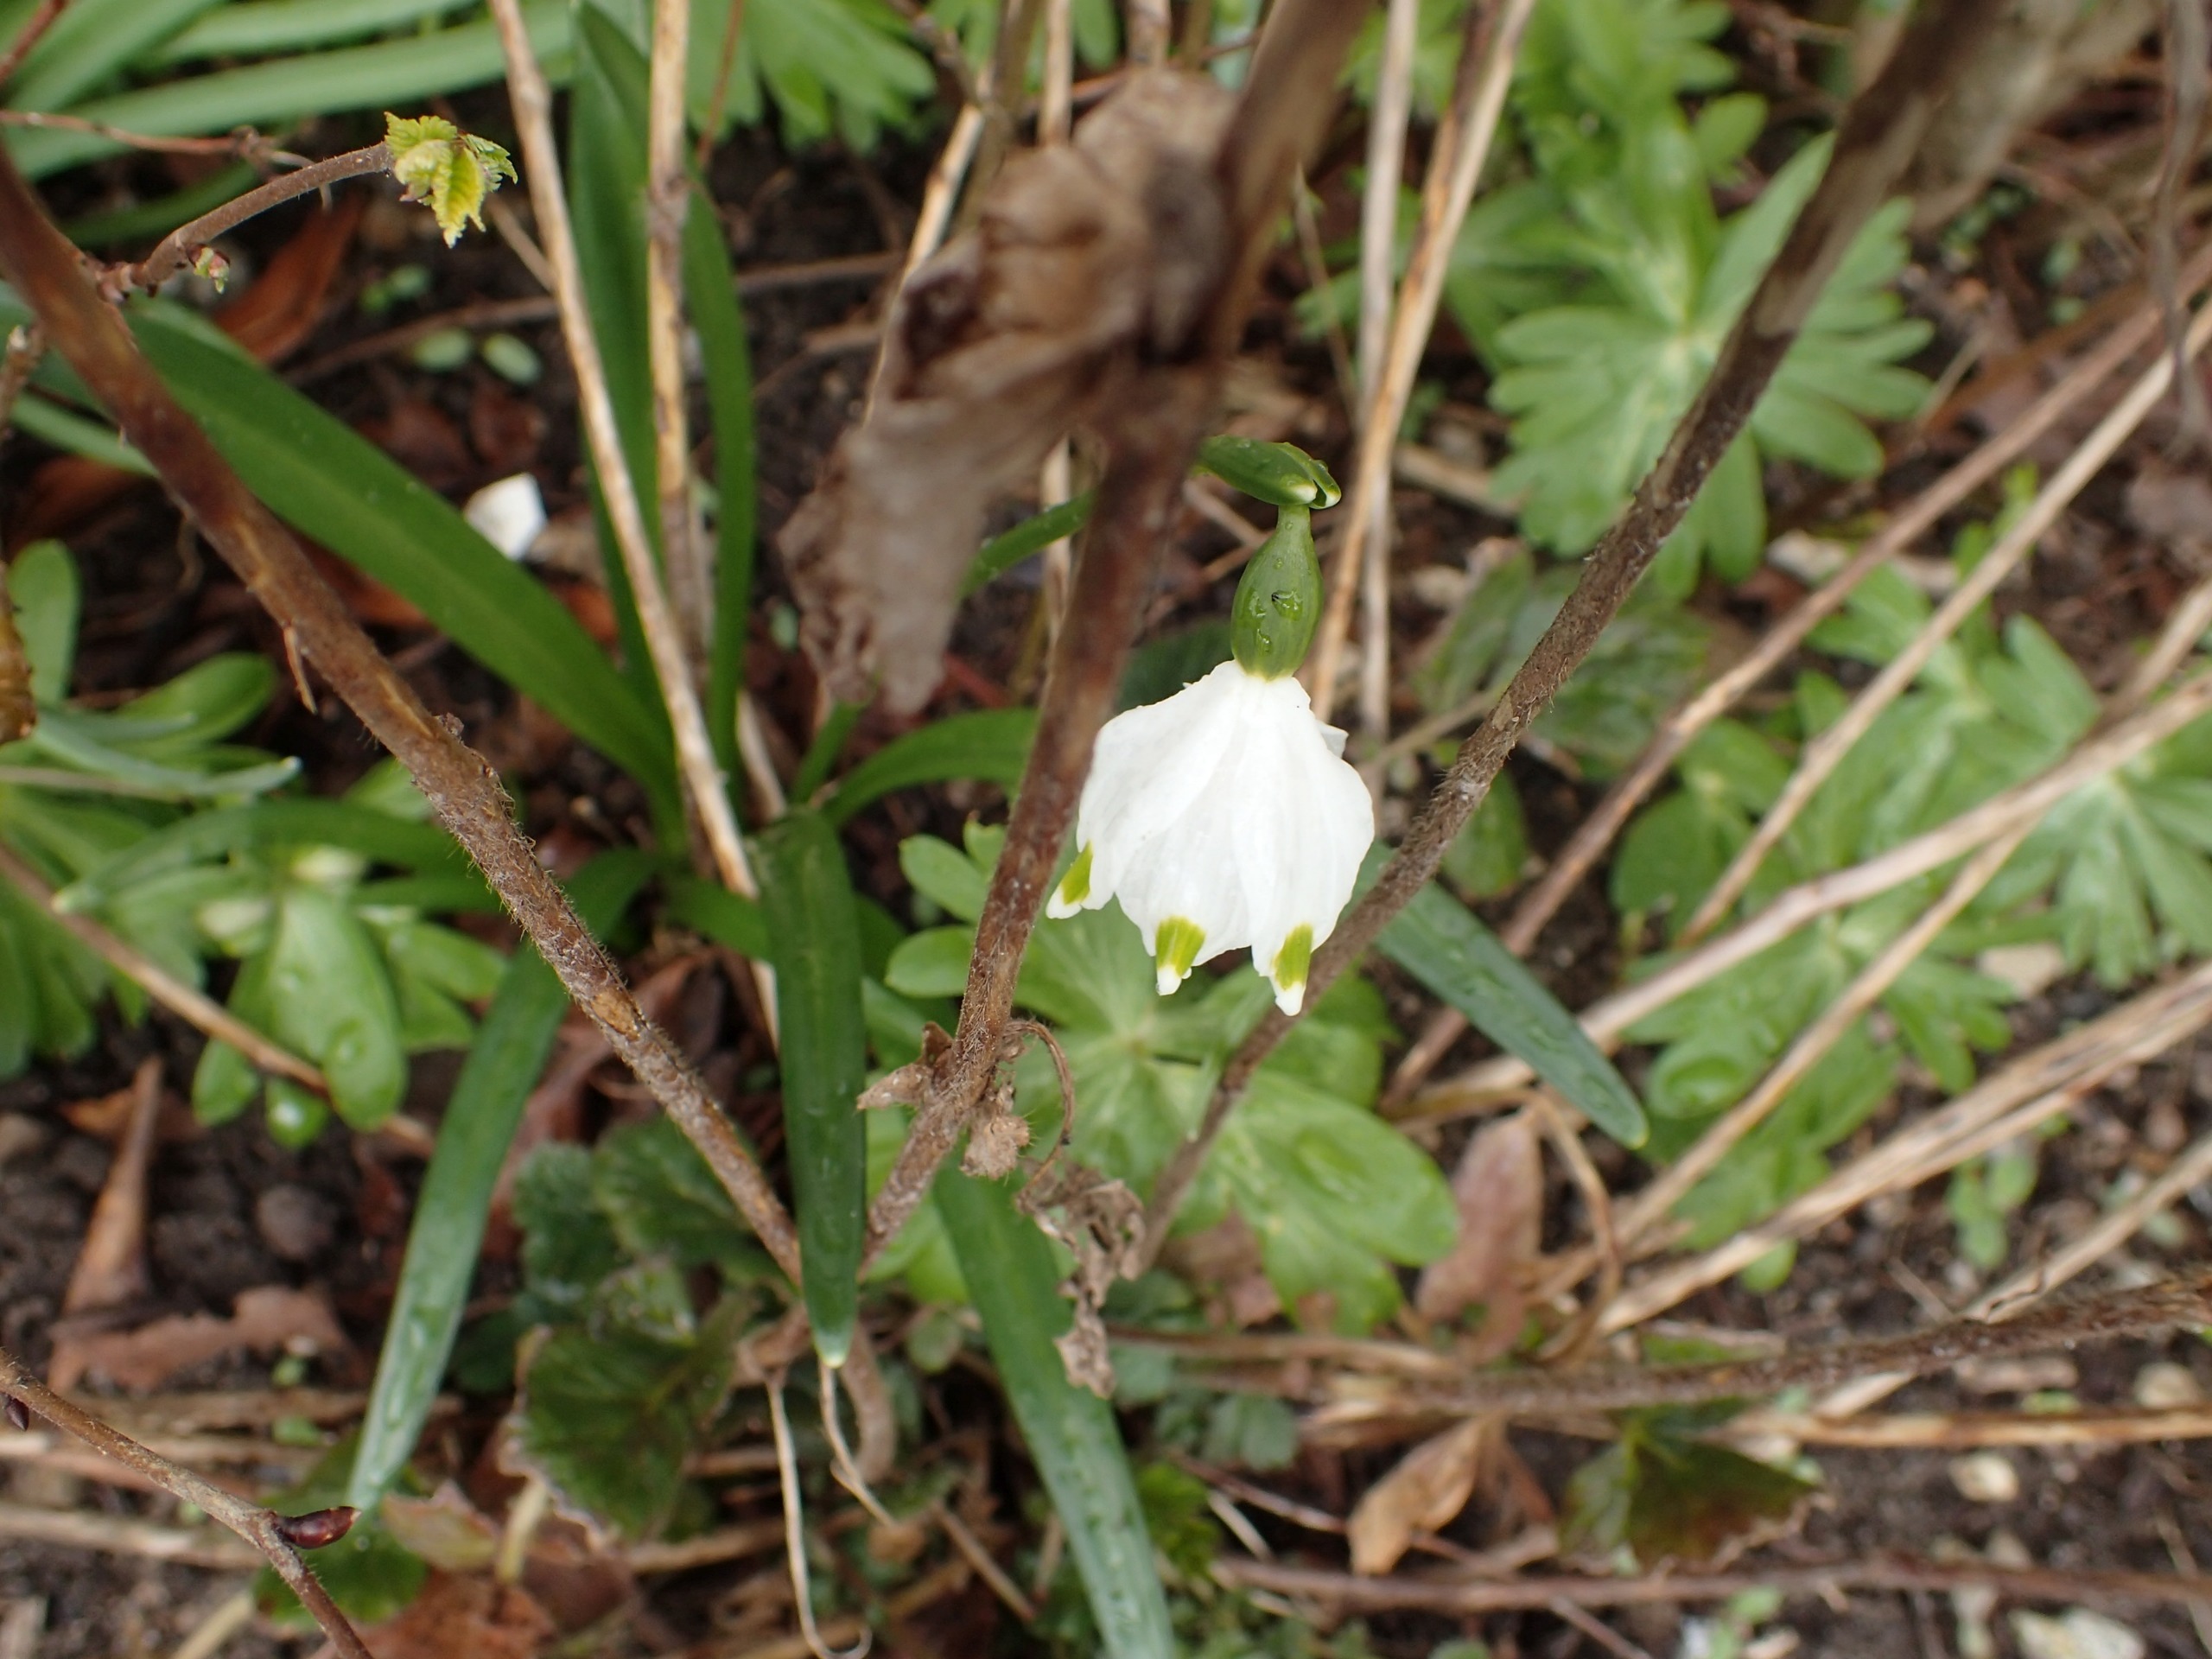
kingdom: Plantae
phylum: Tracheophyta
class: Liliopsida
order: Asparagales
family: Amaryllidaceae
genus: Leucojum
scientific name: Leucojum vernum
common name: Dorthealilje
